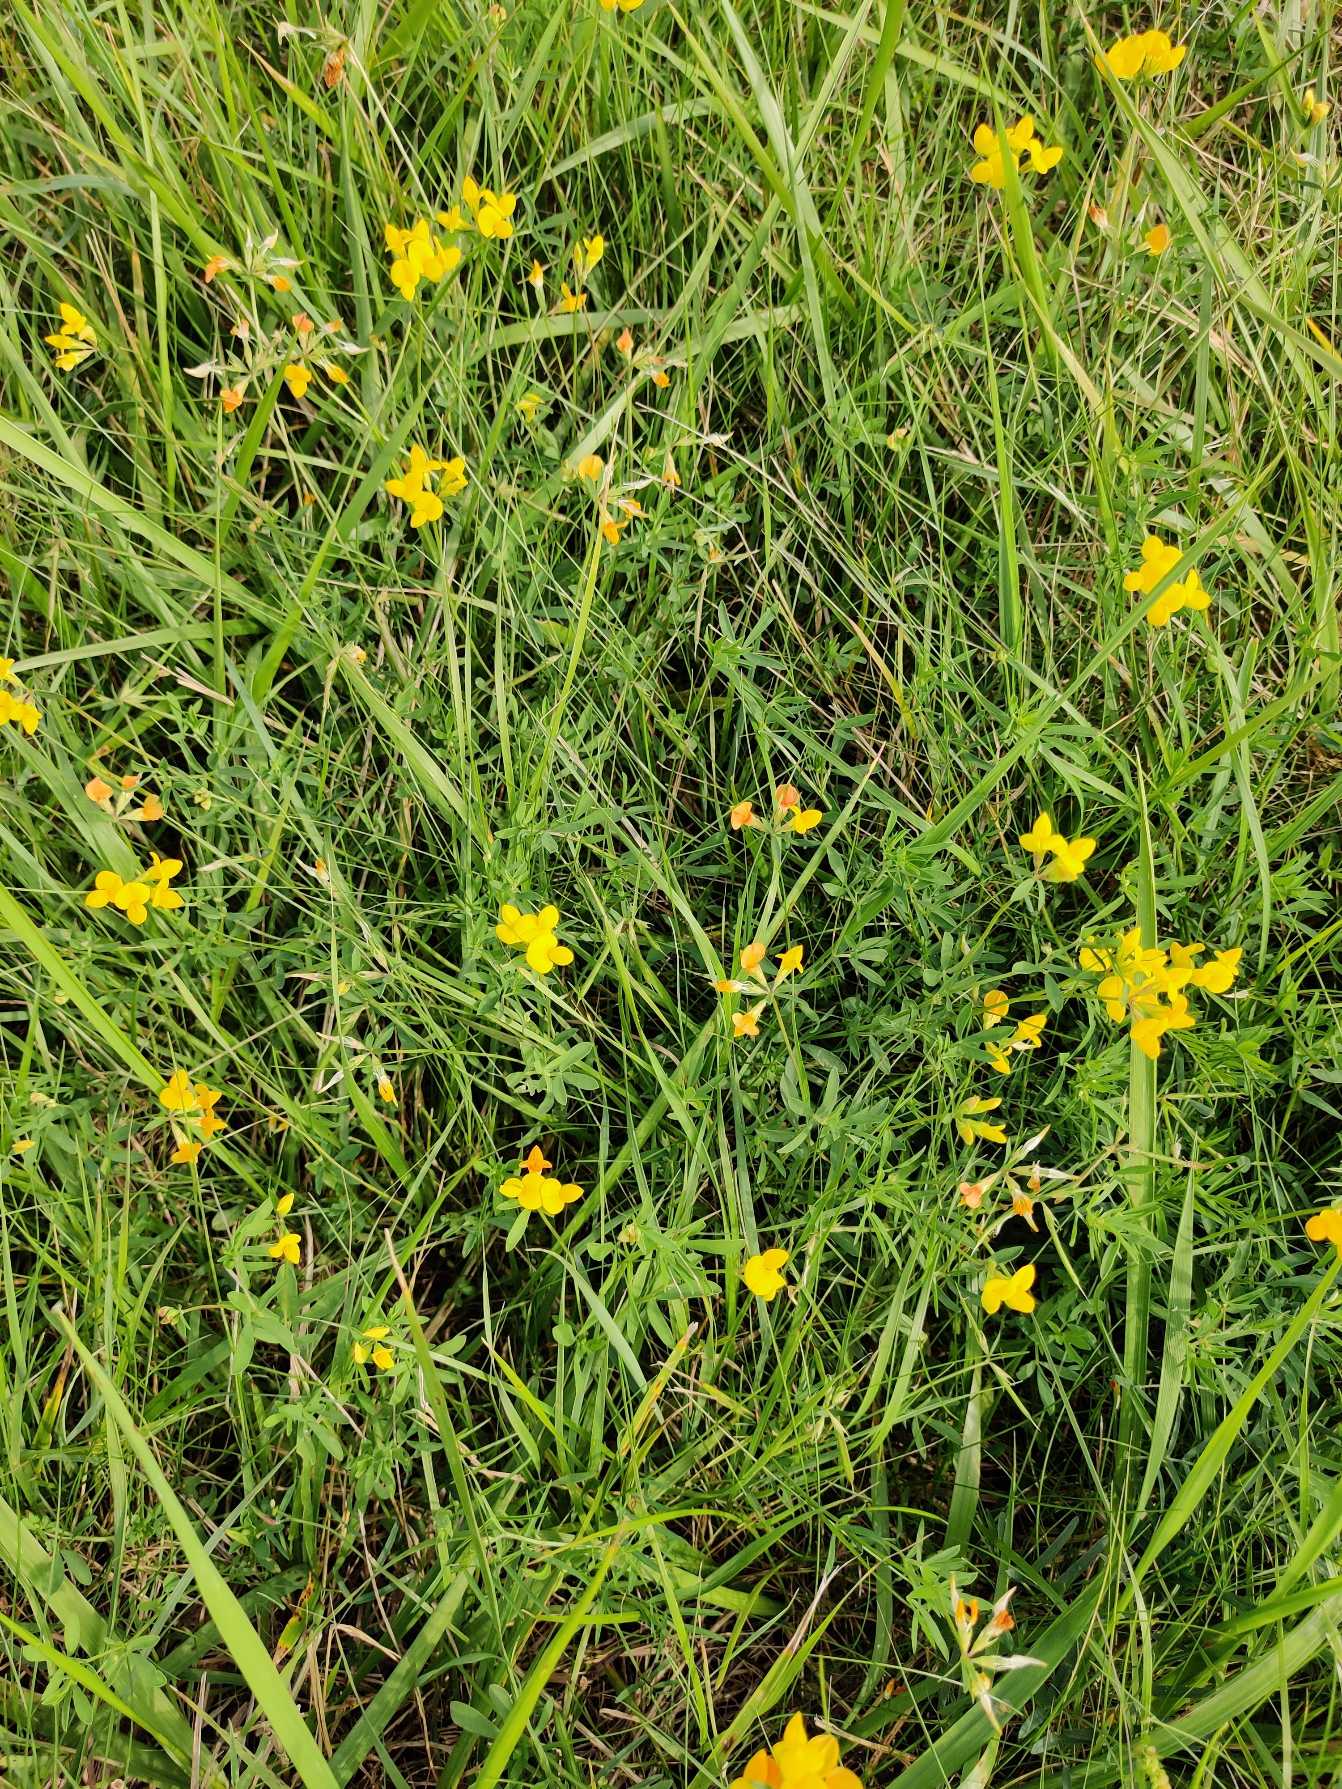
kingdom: Plantae
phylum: Tracheophyta
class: Magnoliopsida
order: Fabales
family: Fabaceae
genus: Lotus
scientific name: Lotus corniculatus
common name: Almindelig kællingetand
